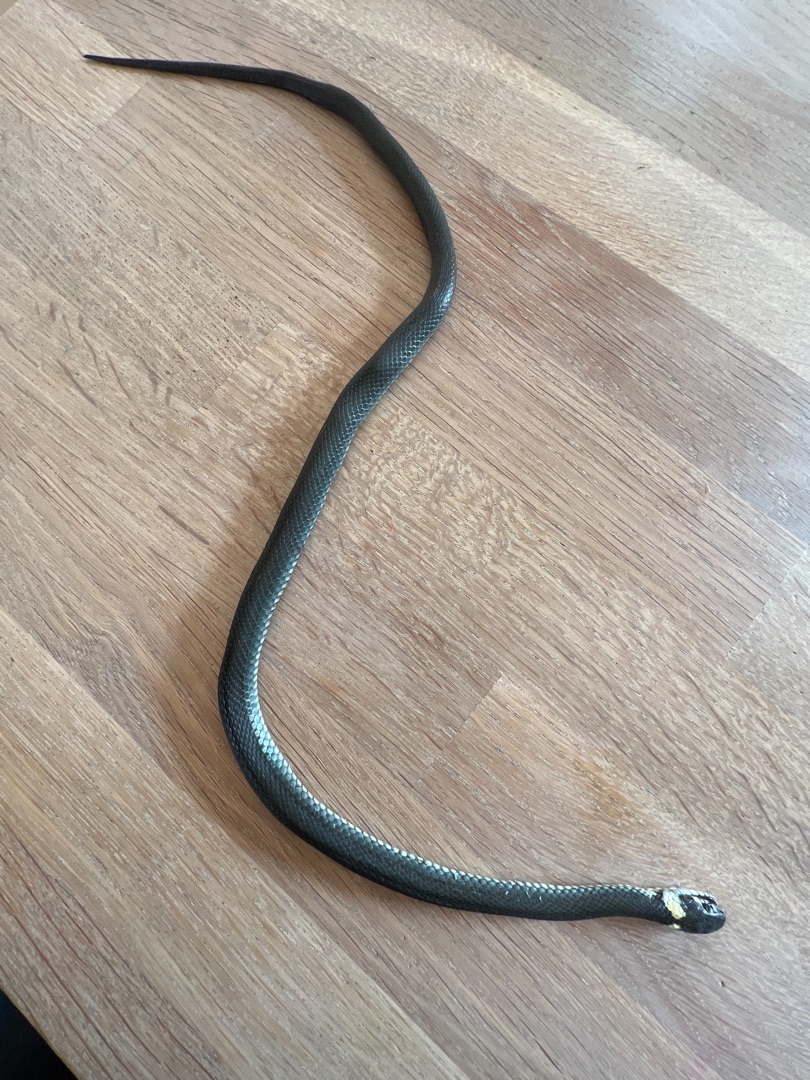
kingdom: Animalia
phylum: Chordata
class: Squamata
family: Colubridae
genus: Natrix
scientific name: Natrix natrix
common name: Snog
